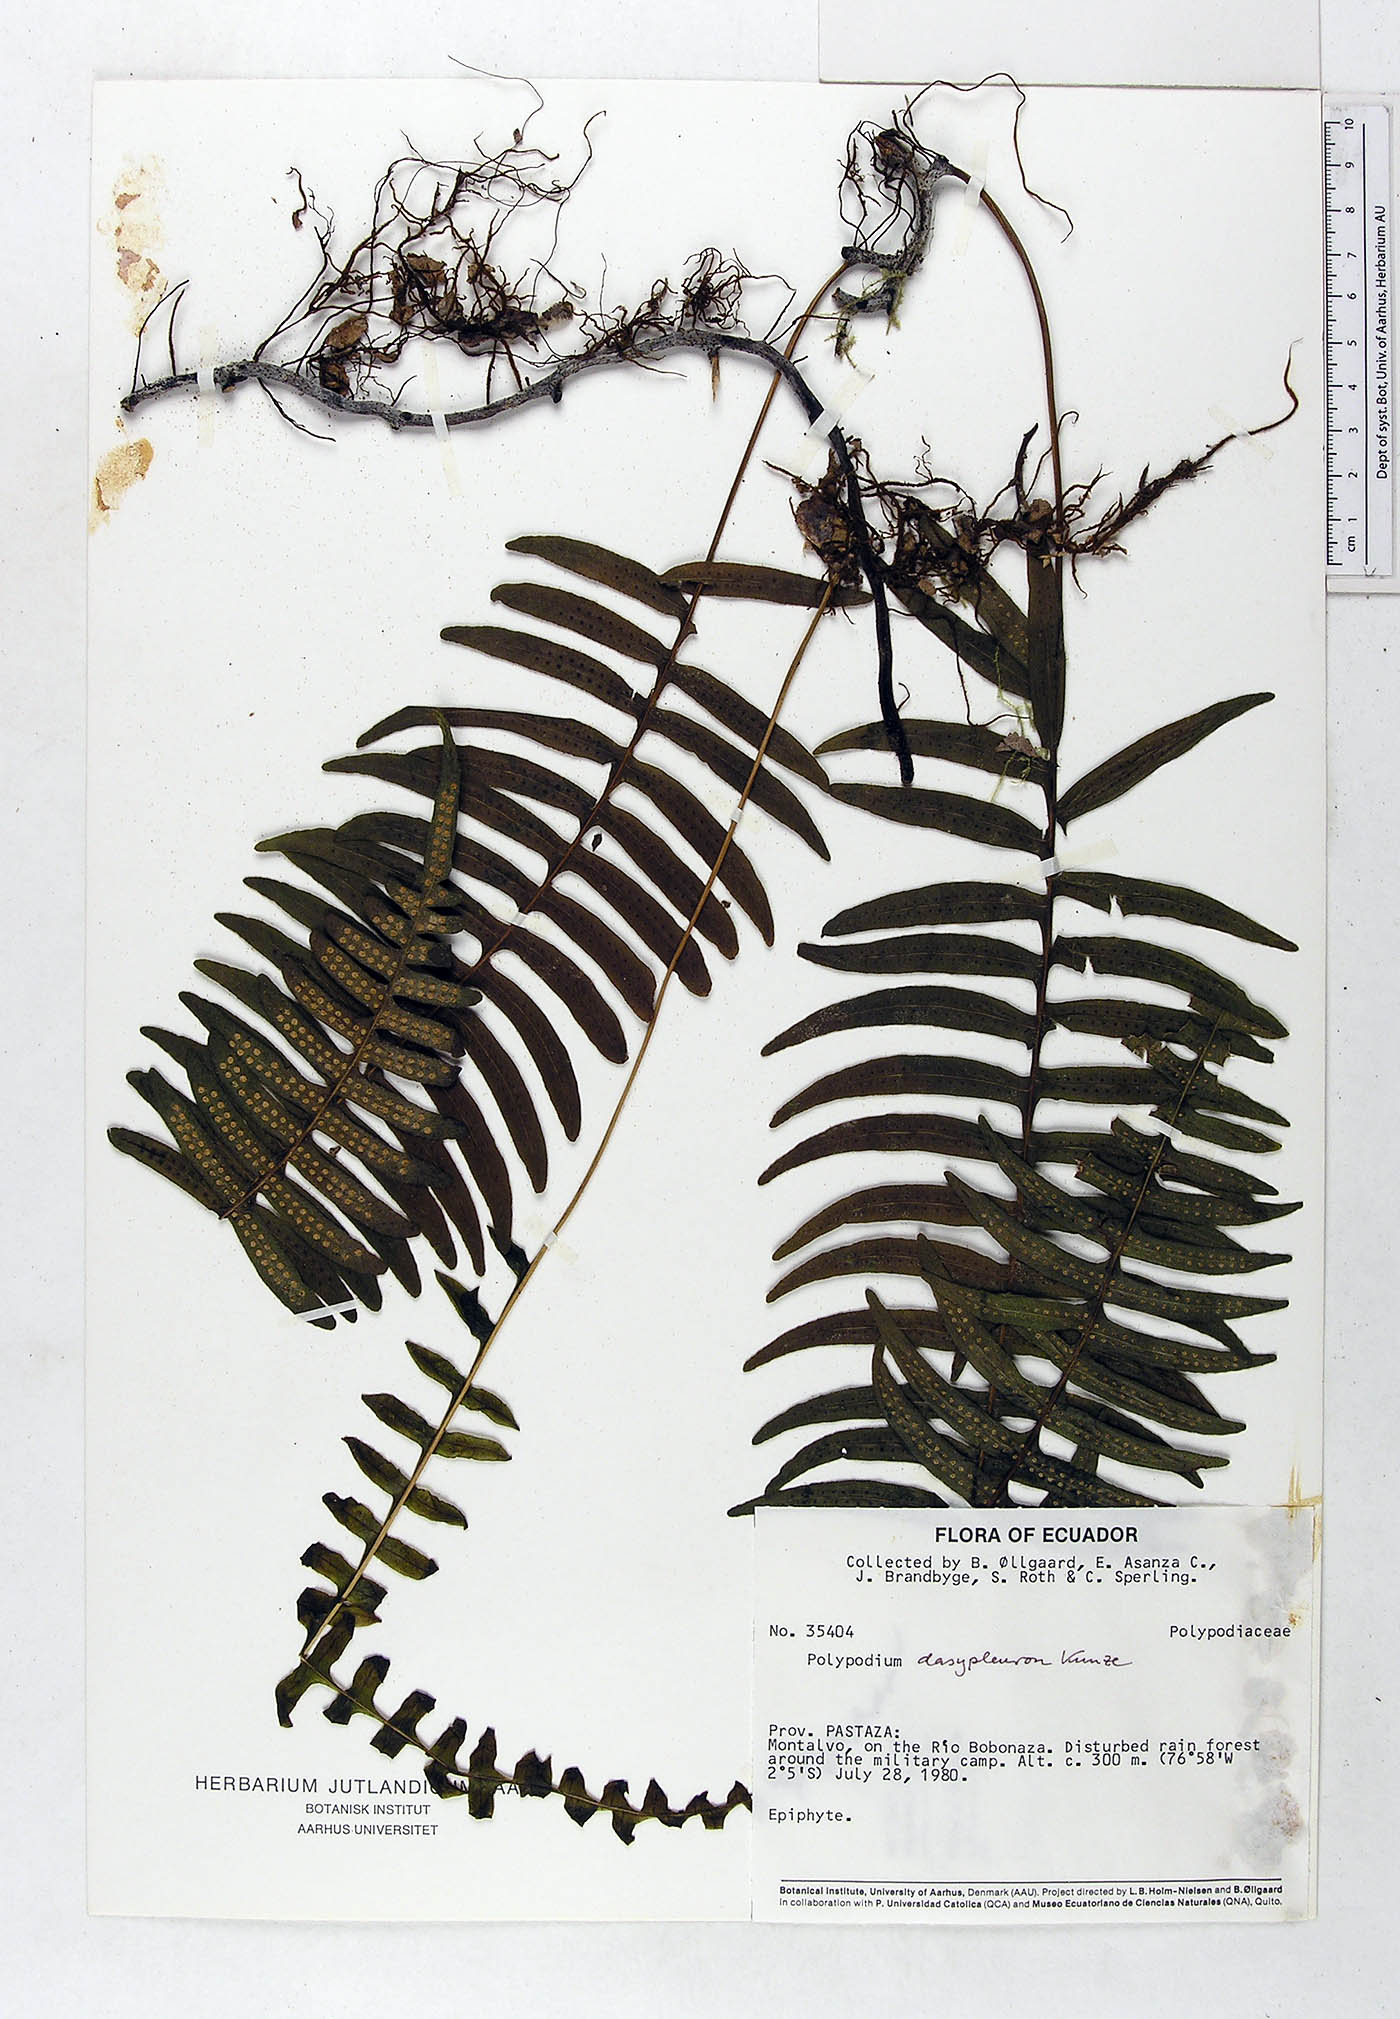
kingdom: Plantae
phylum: Tracheophyta
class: Polypodiopsida
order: Polypodiales
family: Polypodiaceae
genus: Serpocaulon
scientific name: Serpocaulon dasypleuron
